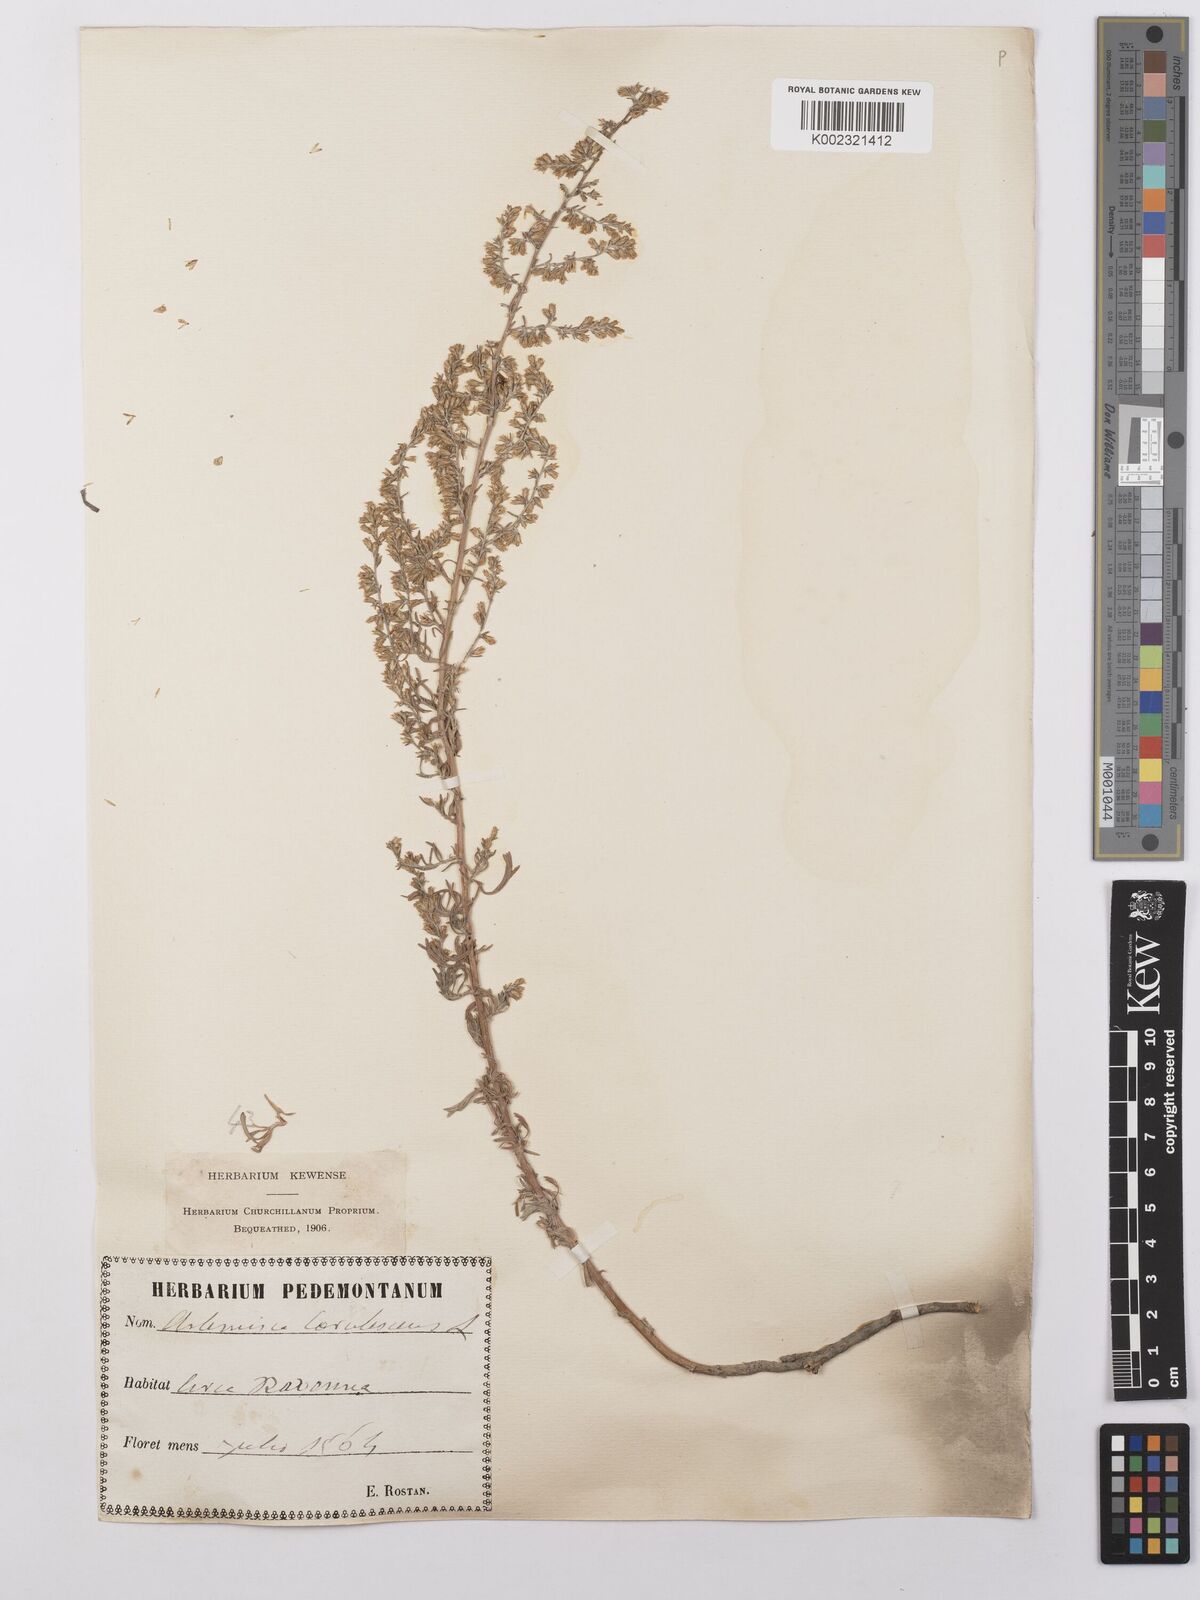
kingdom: Plantae
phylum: Tracheophyta
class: Magnoliopsida
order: Asterales
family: Asteraceae
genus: Artemisia
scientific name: Artemisia caerulescens
